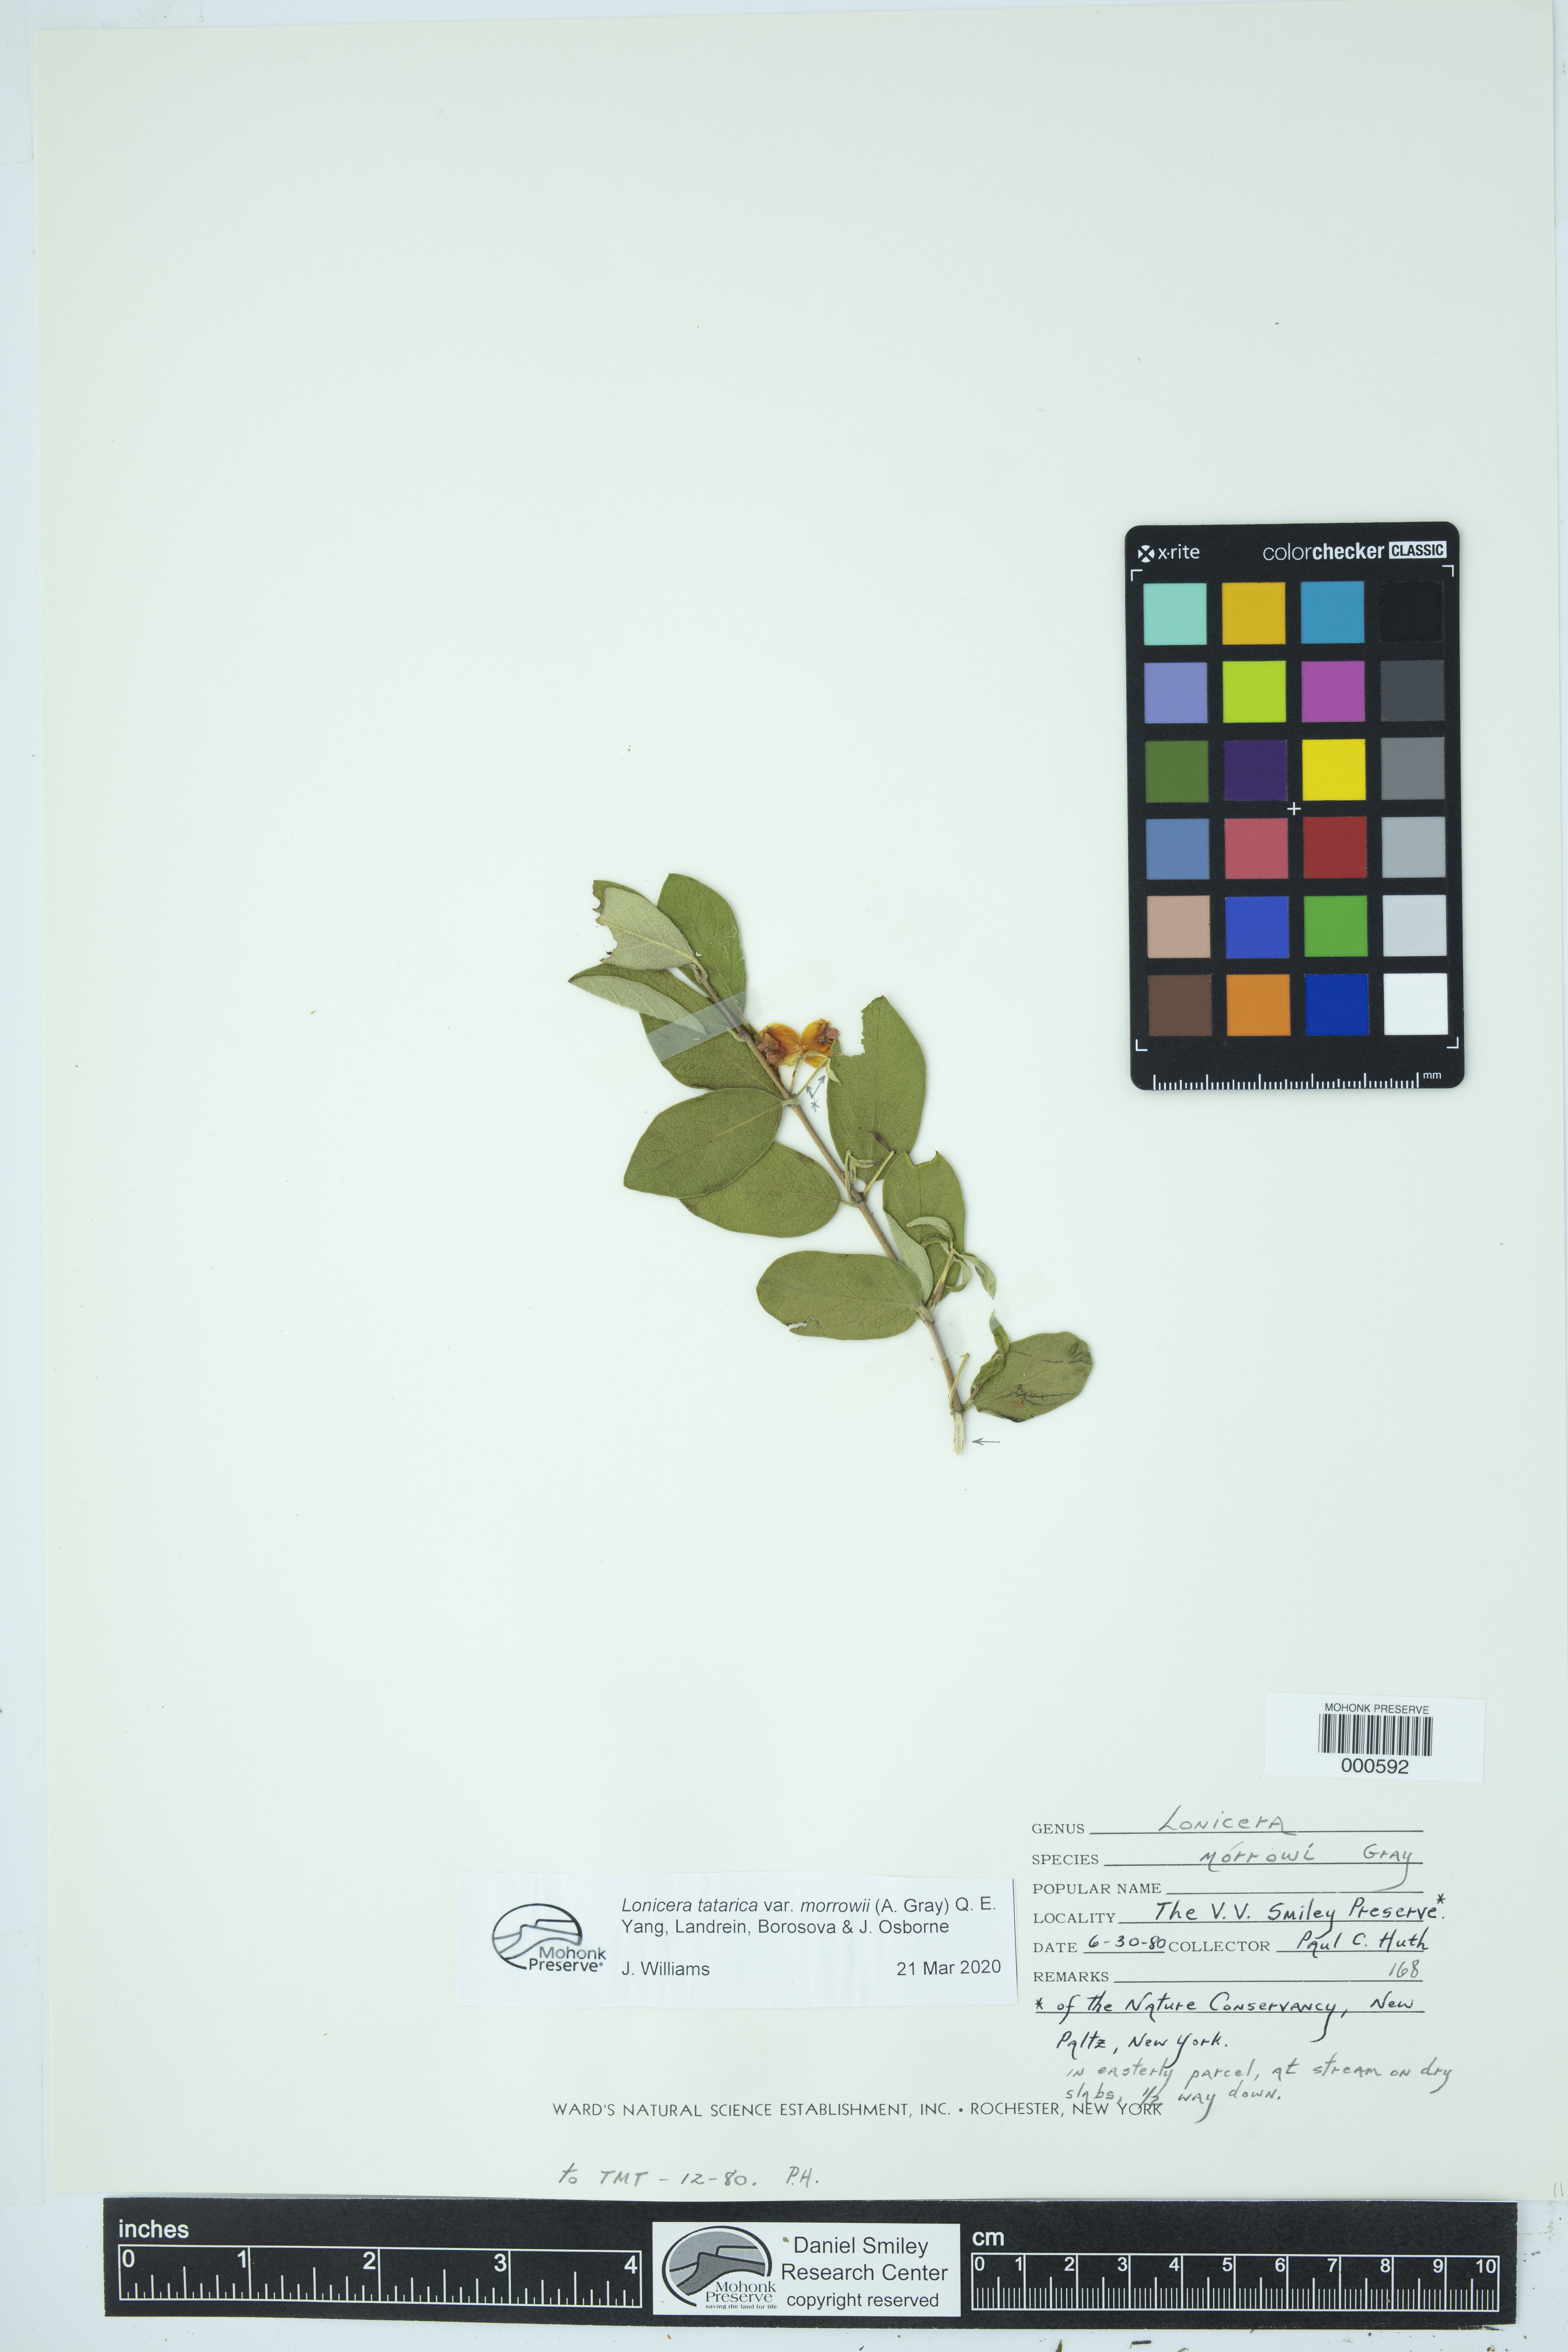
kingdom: Plantae
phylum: Tracheophyta
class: Magnoliopsida
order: Dipsacales
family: Caprifoliaceae
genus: Lonicera
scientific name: Lonicera morrowii
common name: Morrow's honeysuckle
